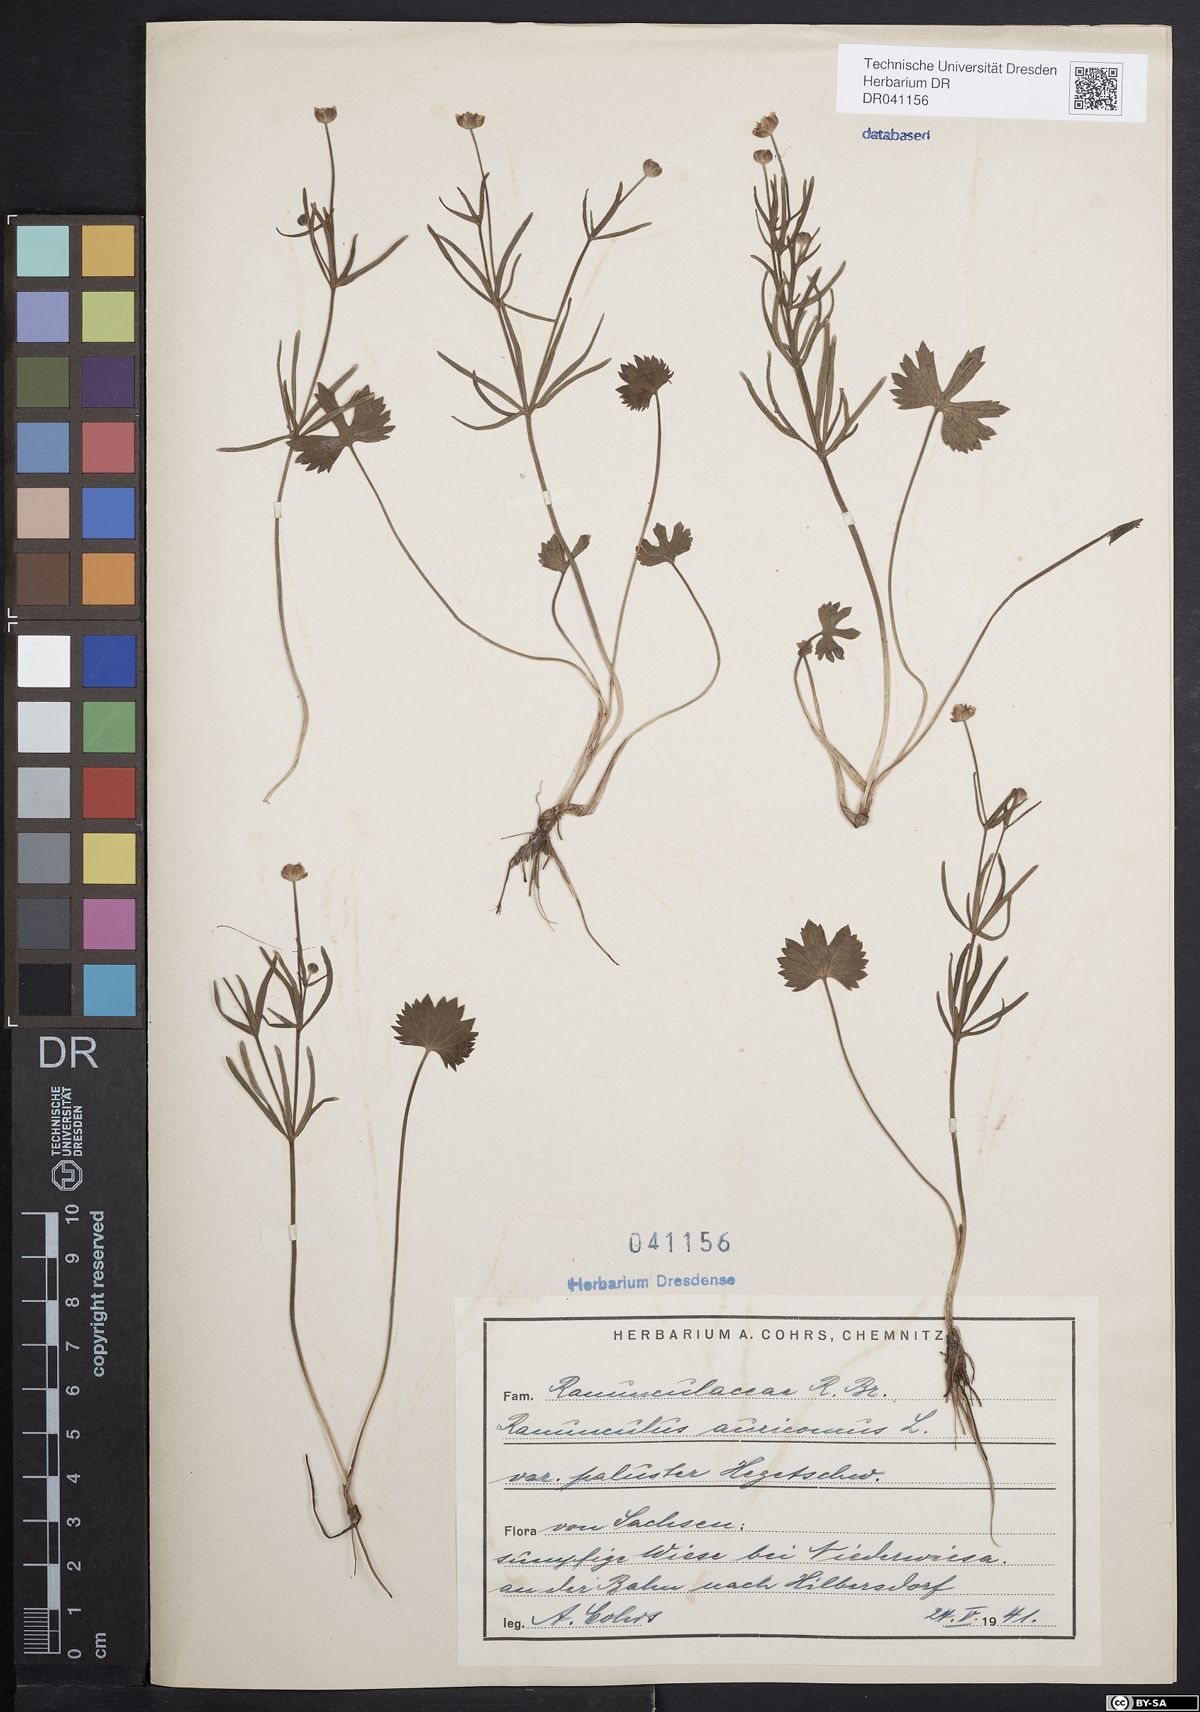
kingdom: Plantae
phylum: Tracheophyta
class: Magnoliopsida
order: Ranunculales
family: Ranunculaceae
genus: Ranunculus
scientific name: Ranunculus auricomus
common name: Goldilocks buttercup
